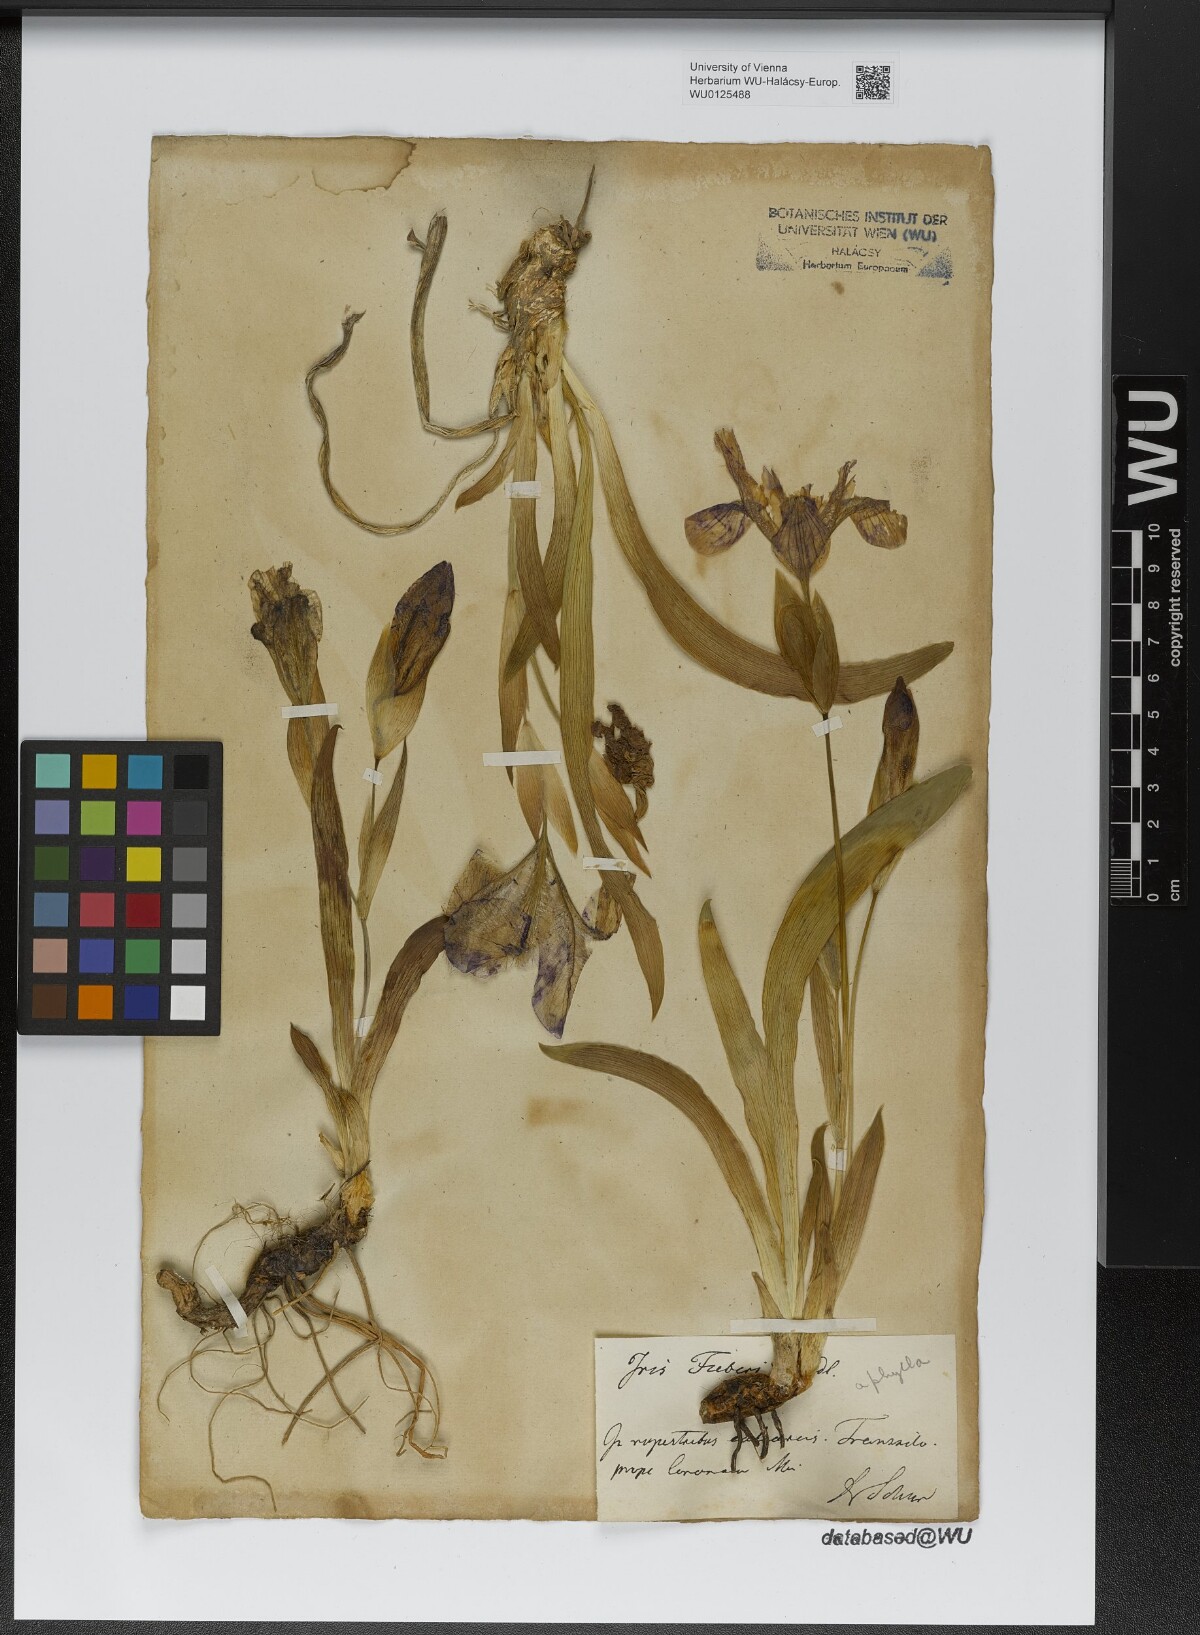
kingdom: Plantae
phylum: Tracheophyta
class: Liliopsida
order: Asparagales
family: Iridaceae
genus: Iris
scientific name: Iris aphylla
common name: Stool iris
